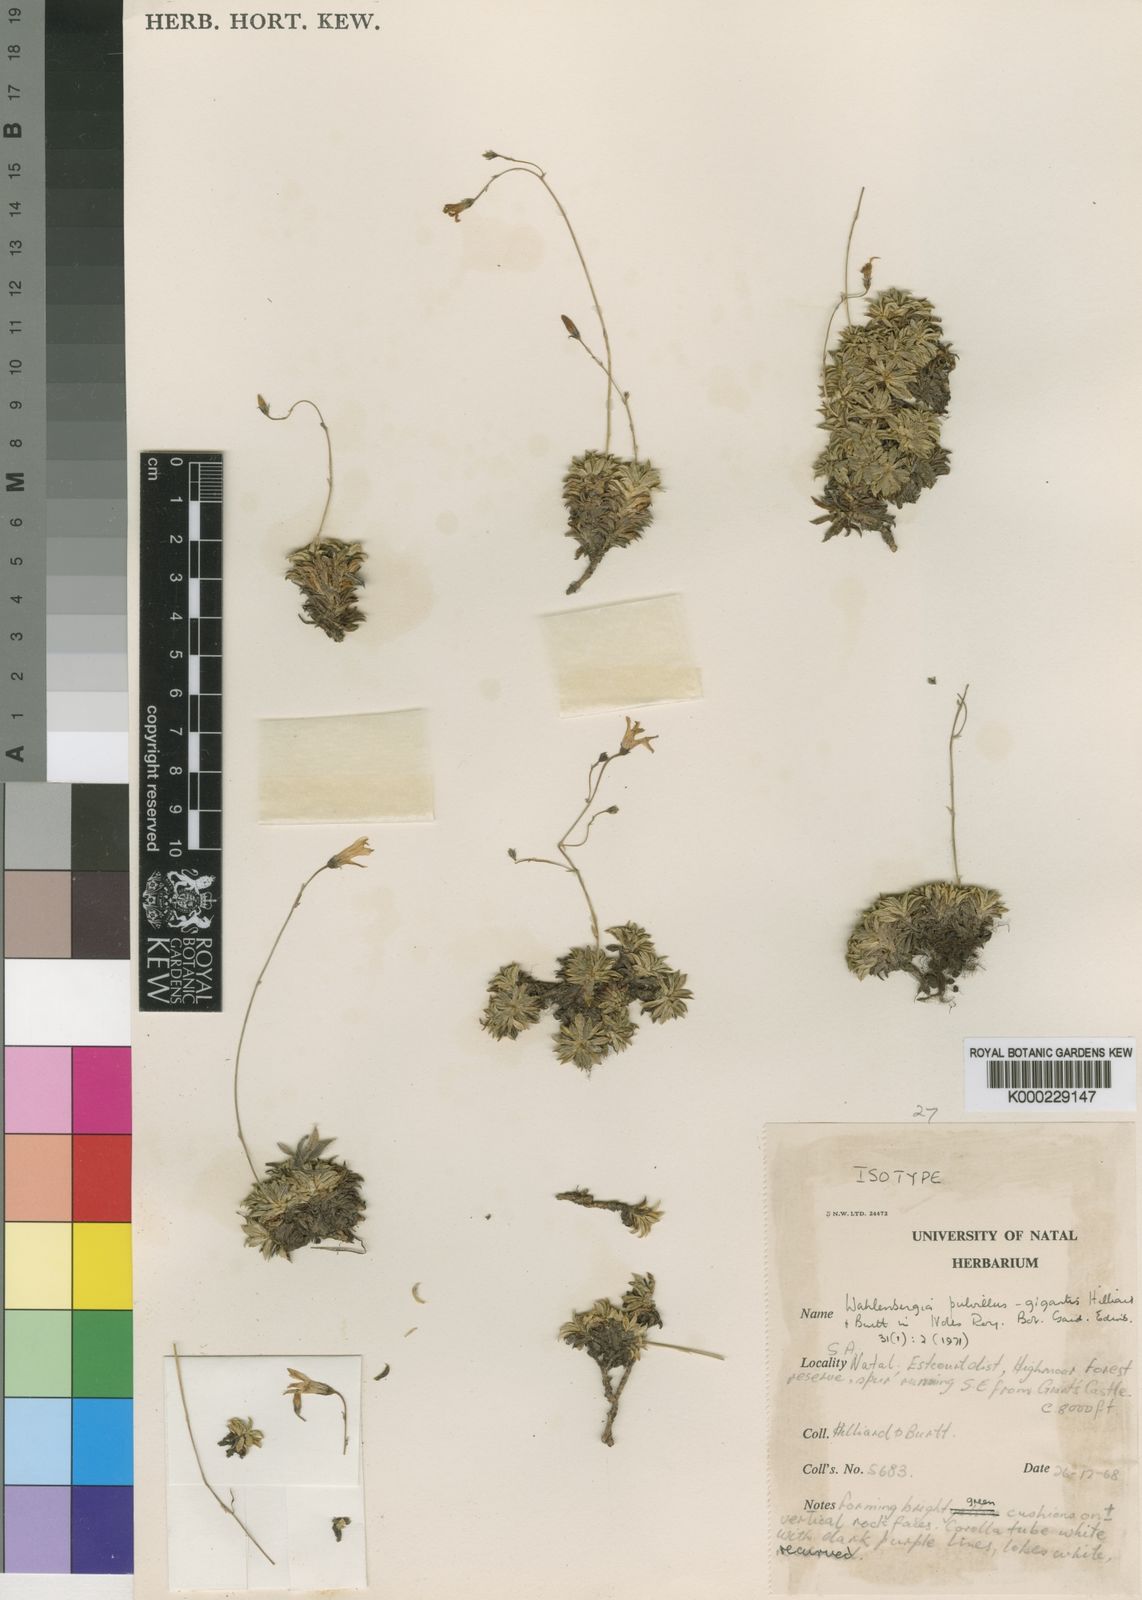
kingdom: Plantae
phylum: Tracheophyta
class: Magnoliopsida
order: Asterales
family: Campanulaceae
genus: Wahlenbergia
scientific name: Wahlenbergia pulvillus-gigantis
